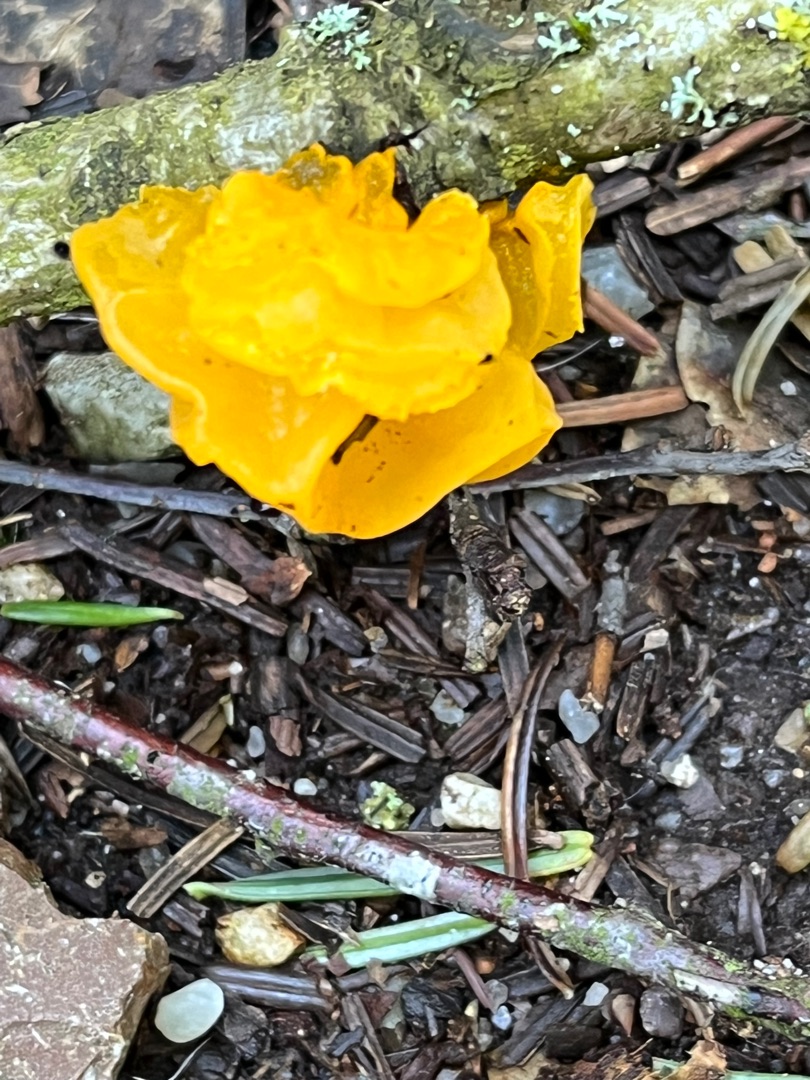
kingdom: Fungi
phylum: Basidiomycota
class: Tremellomycetes
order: Tremellales
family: Tremellaceae
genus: Tremella
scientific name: Tremella mesenterica
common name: Gul bævresvamp
